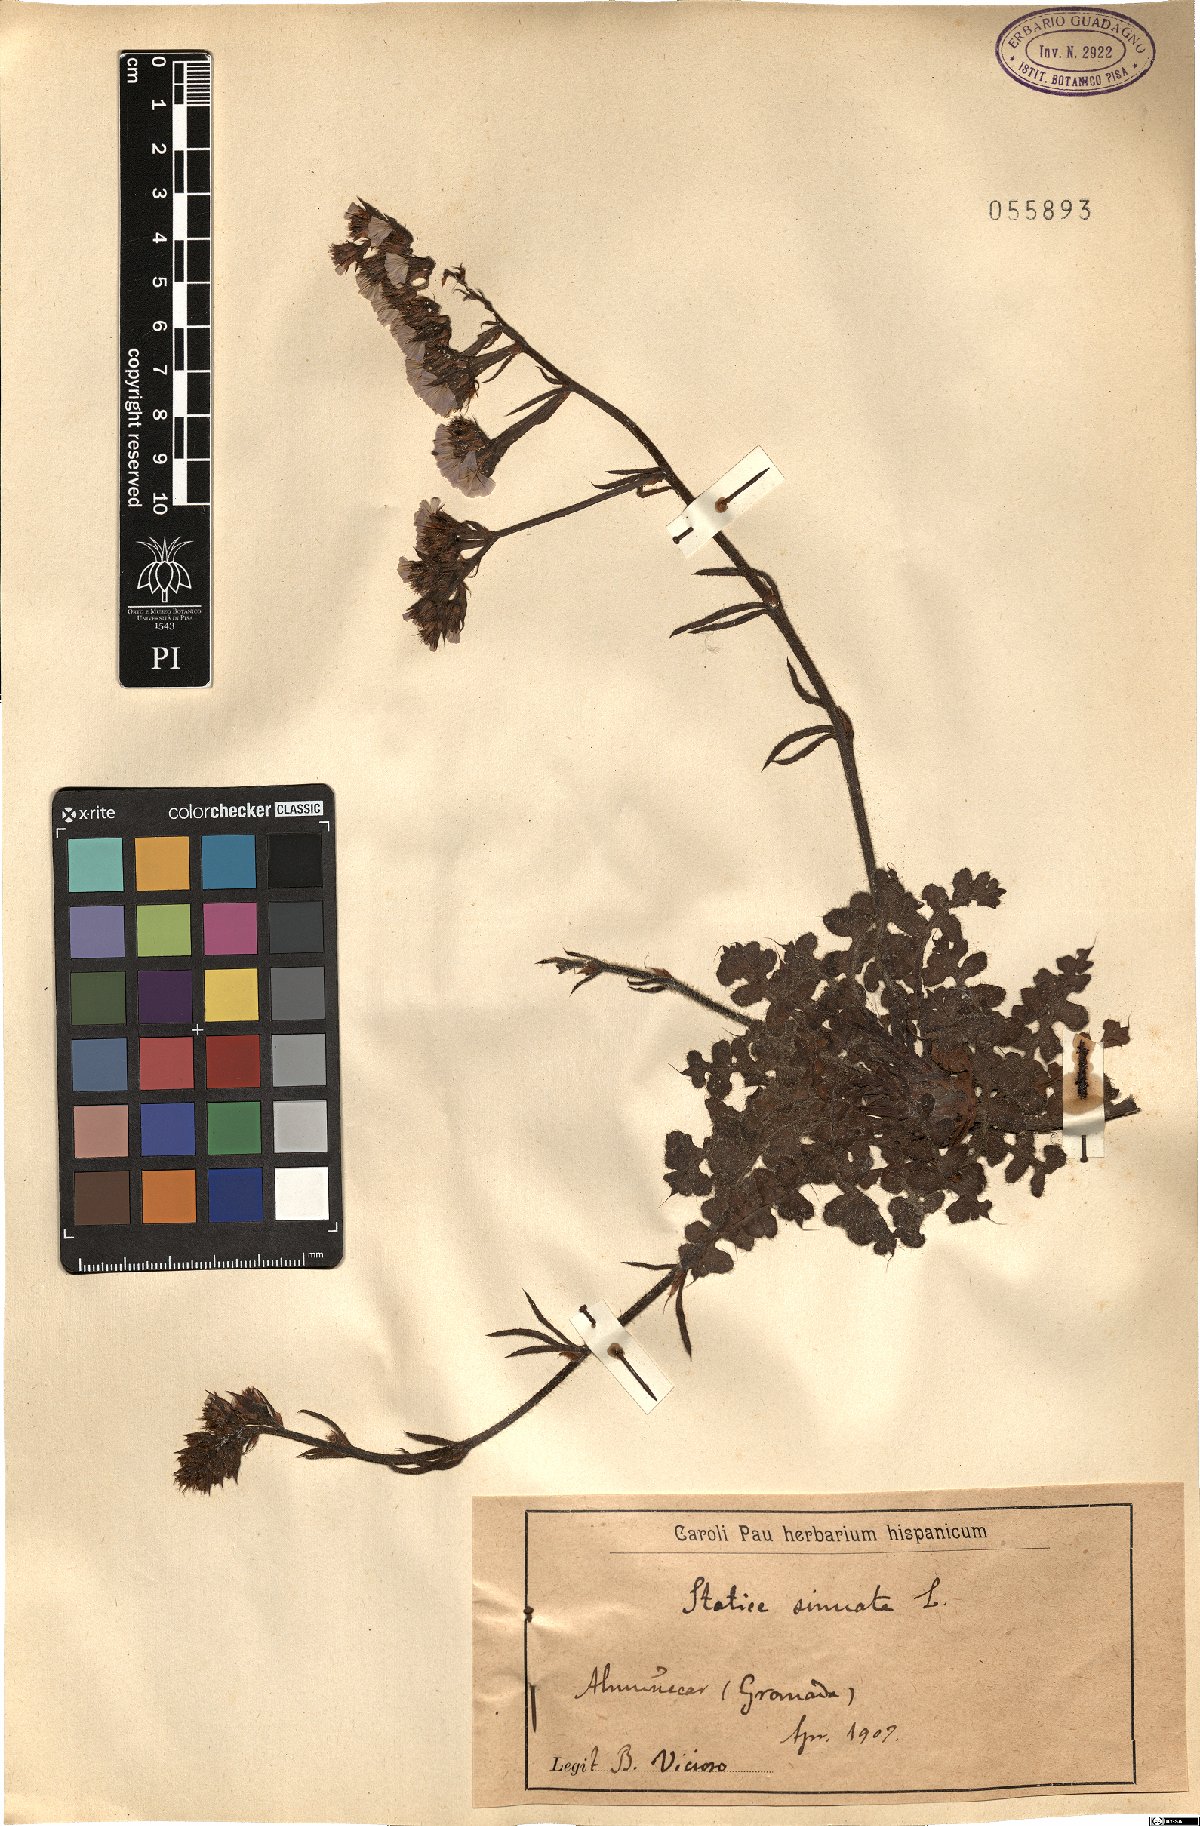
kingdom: Plantae
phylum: Tracheophyta
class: Magnoliopsida
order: Caryophyllales
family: Plumbaginaceae
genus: Limonium
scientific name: Limonium sinuatum
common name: Statice
